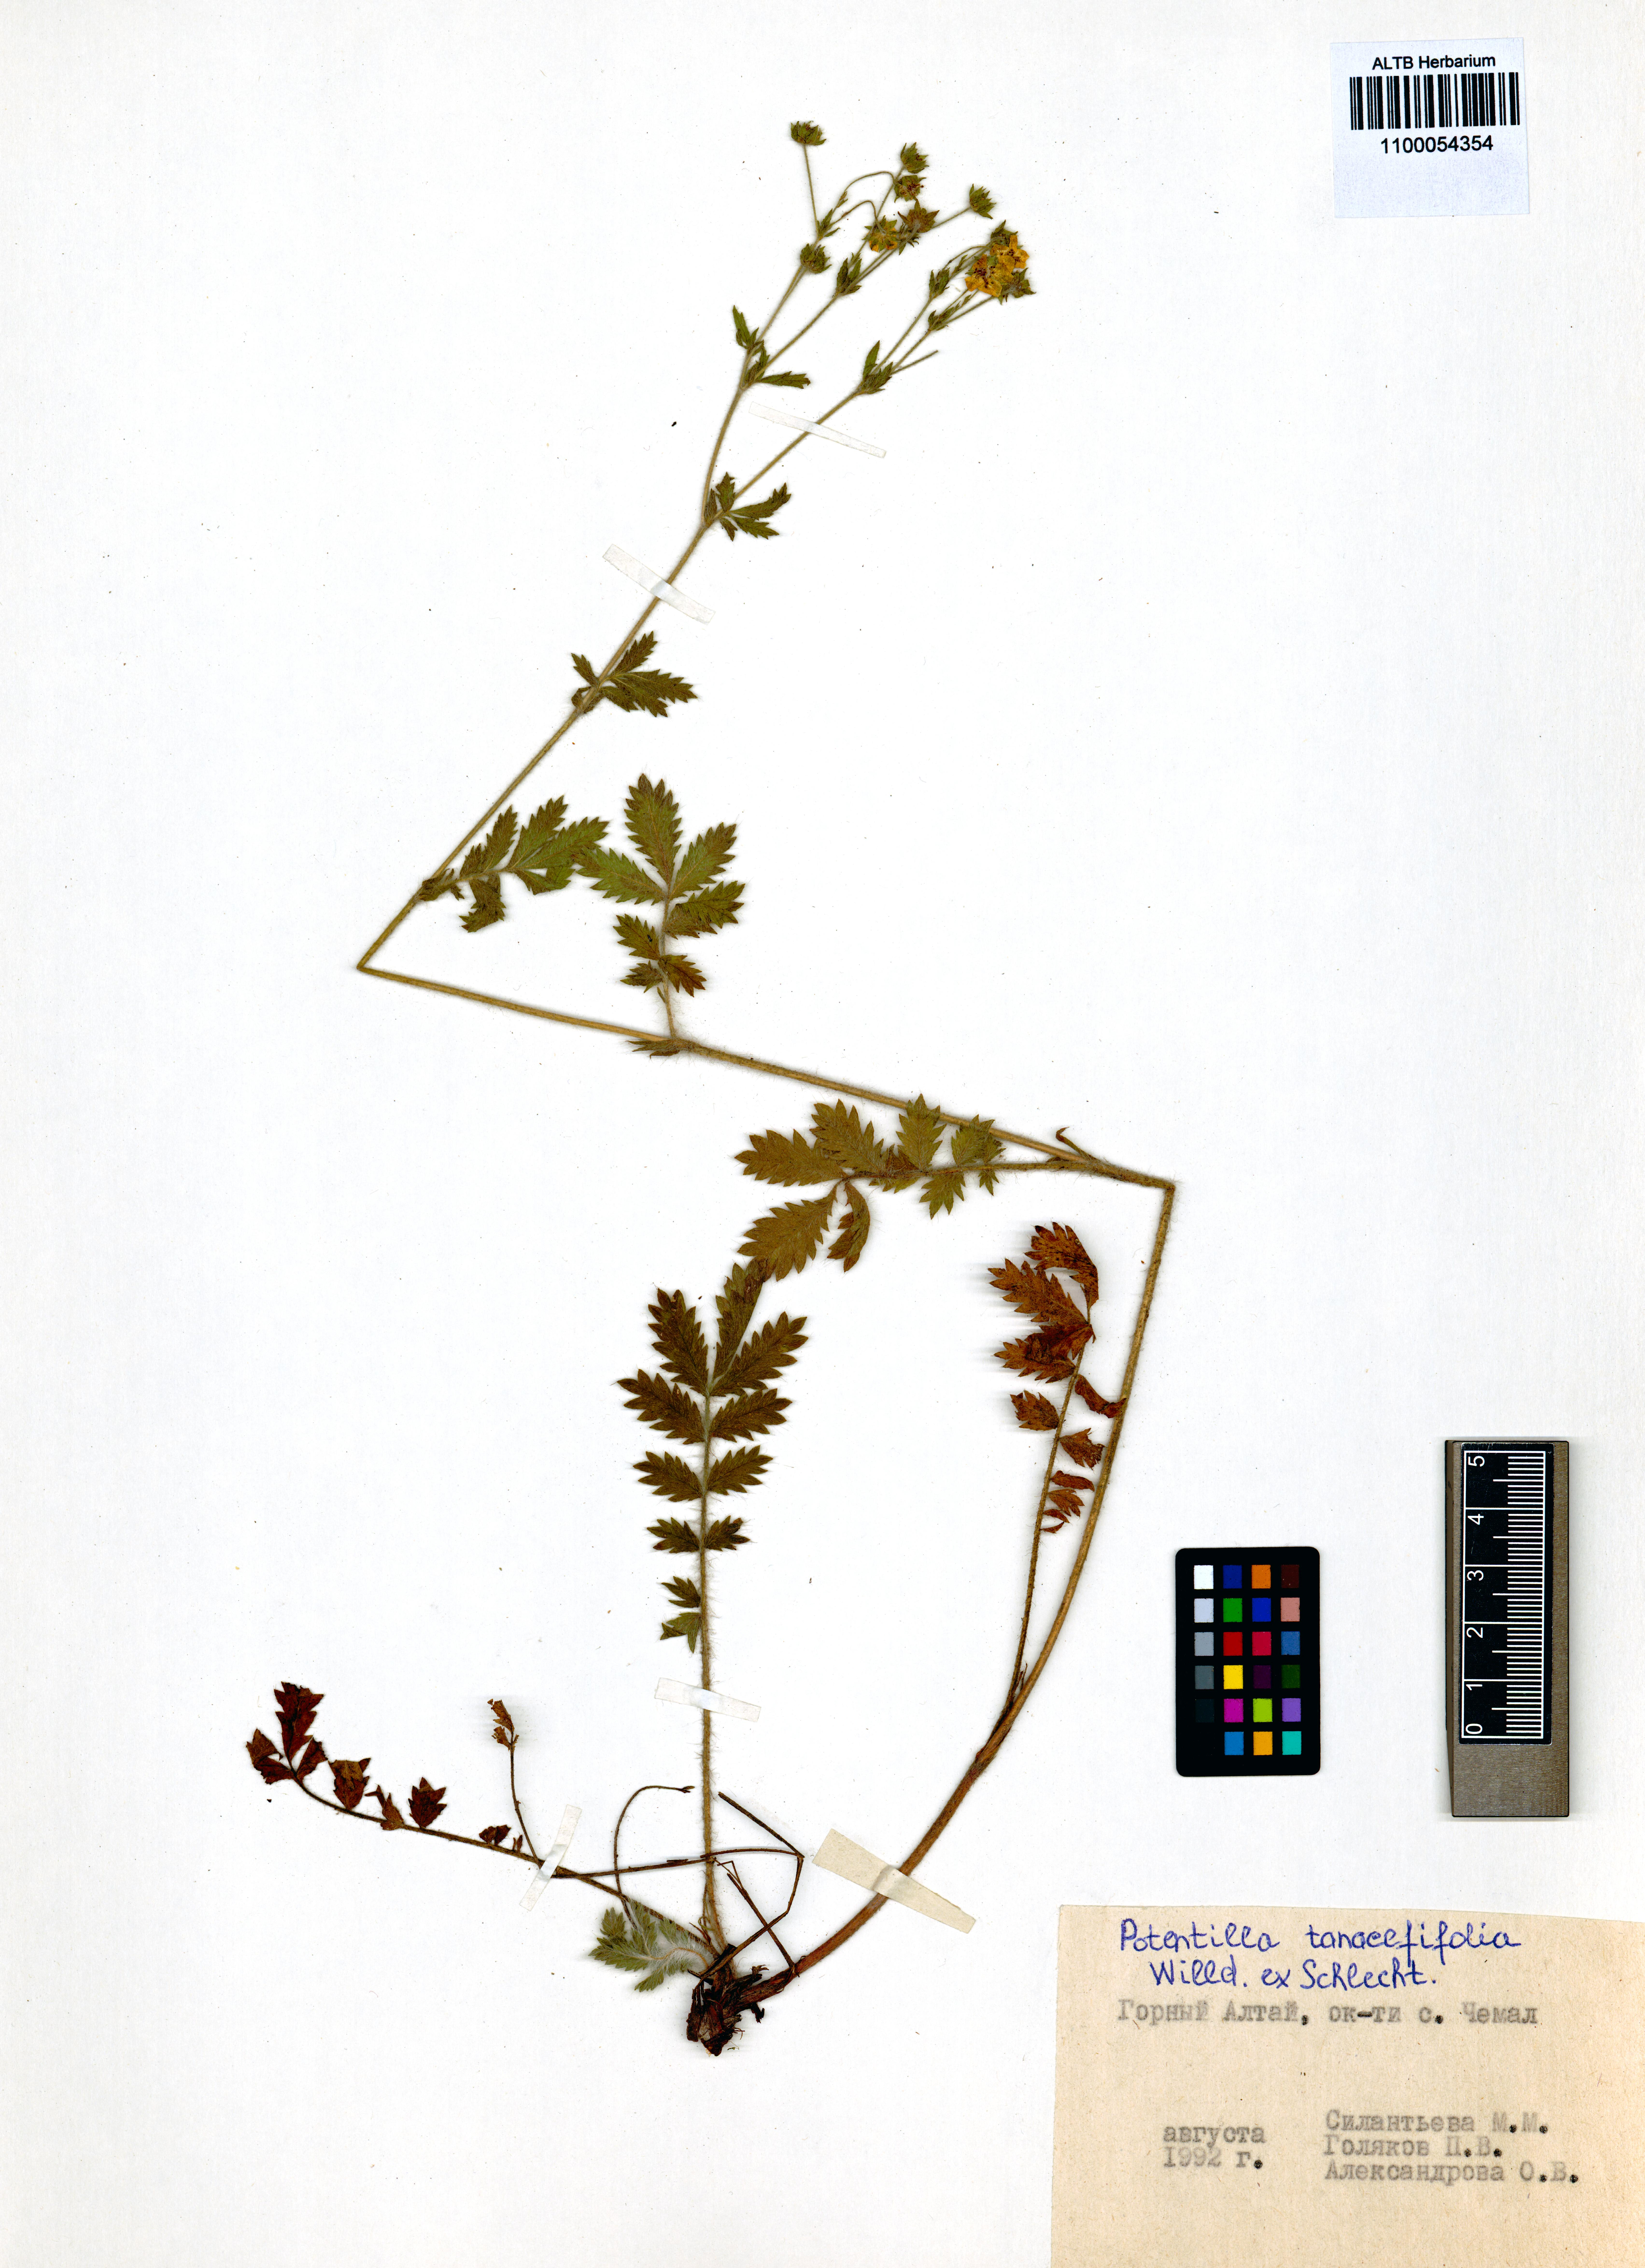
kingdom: Plantae
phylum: Tracheophyta
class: Magnoliopsida
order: Rosales
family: Rosaceae
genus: Potentilla
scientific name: Potentilla tanacetifolia
